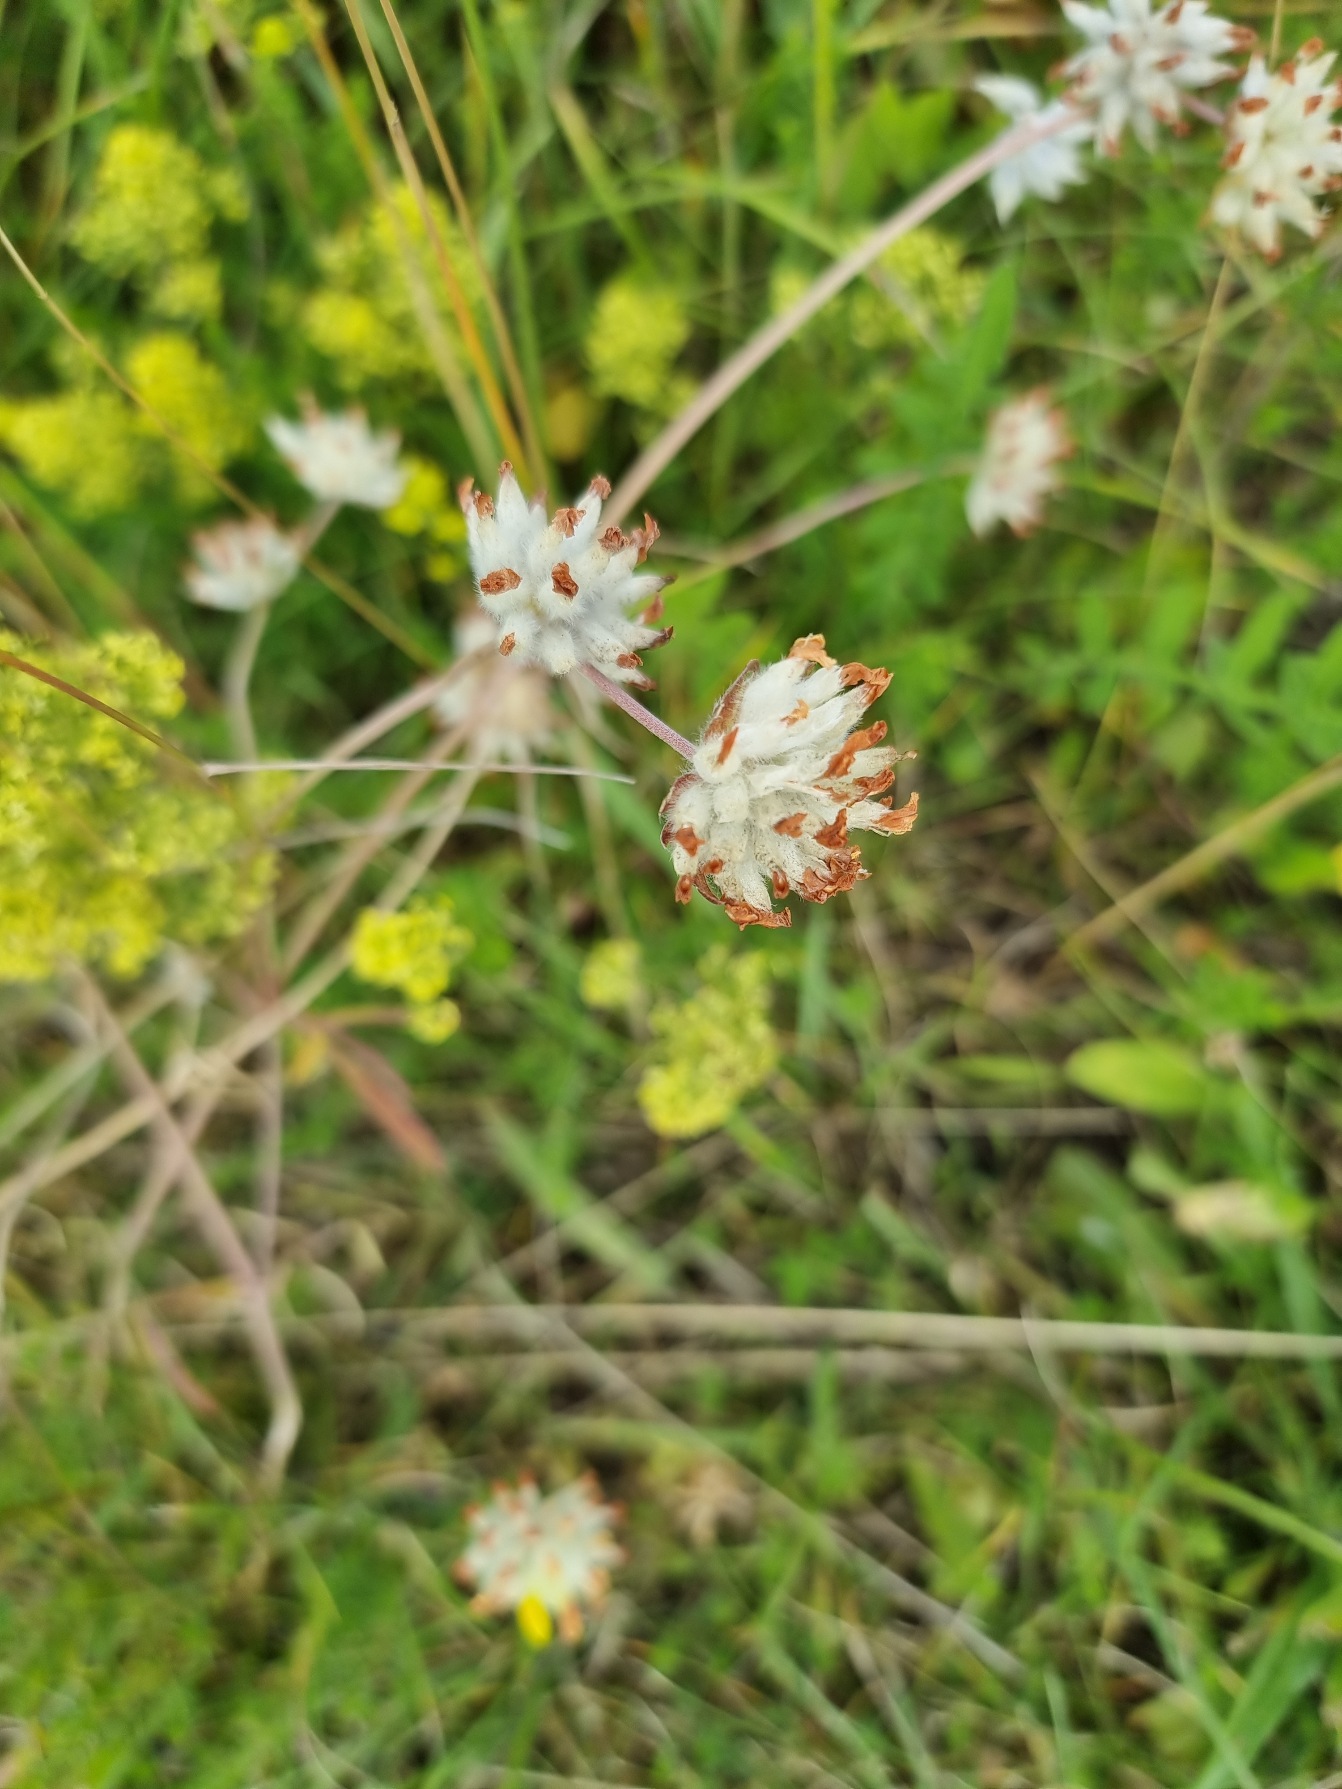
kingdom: Plantae
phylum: Tracheophyta
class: Magnoliopsida
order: Fabales
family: Fabaceae
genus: Anthyllis
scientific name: Anthyllis vulneraria
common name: Rundbælg
